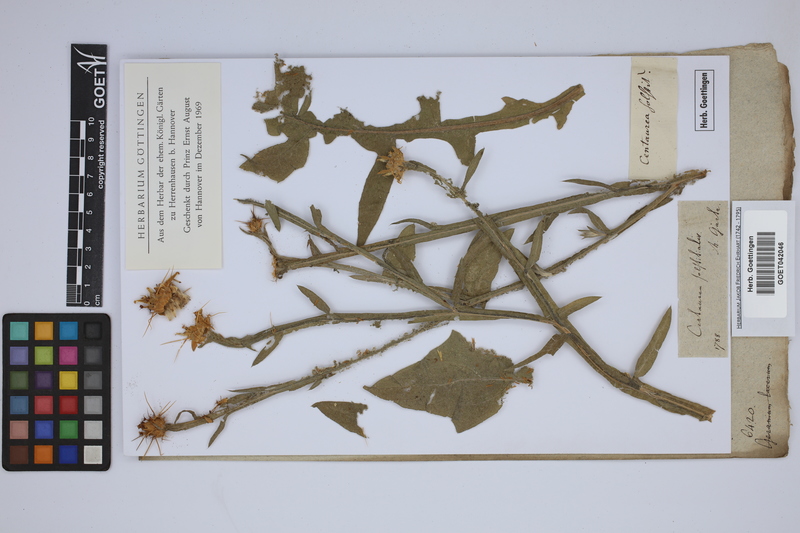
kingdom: Plantae
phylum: Tracheophyta
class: Magnoliopsida
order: Asterales
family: Asteraceae
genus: Centaurea
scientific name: Centaurea solstitialis
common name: Yellow star-thistle
